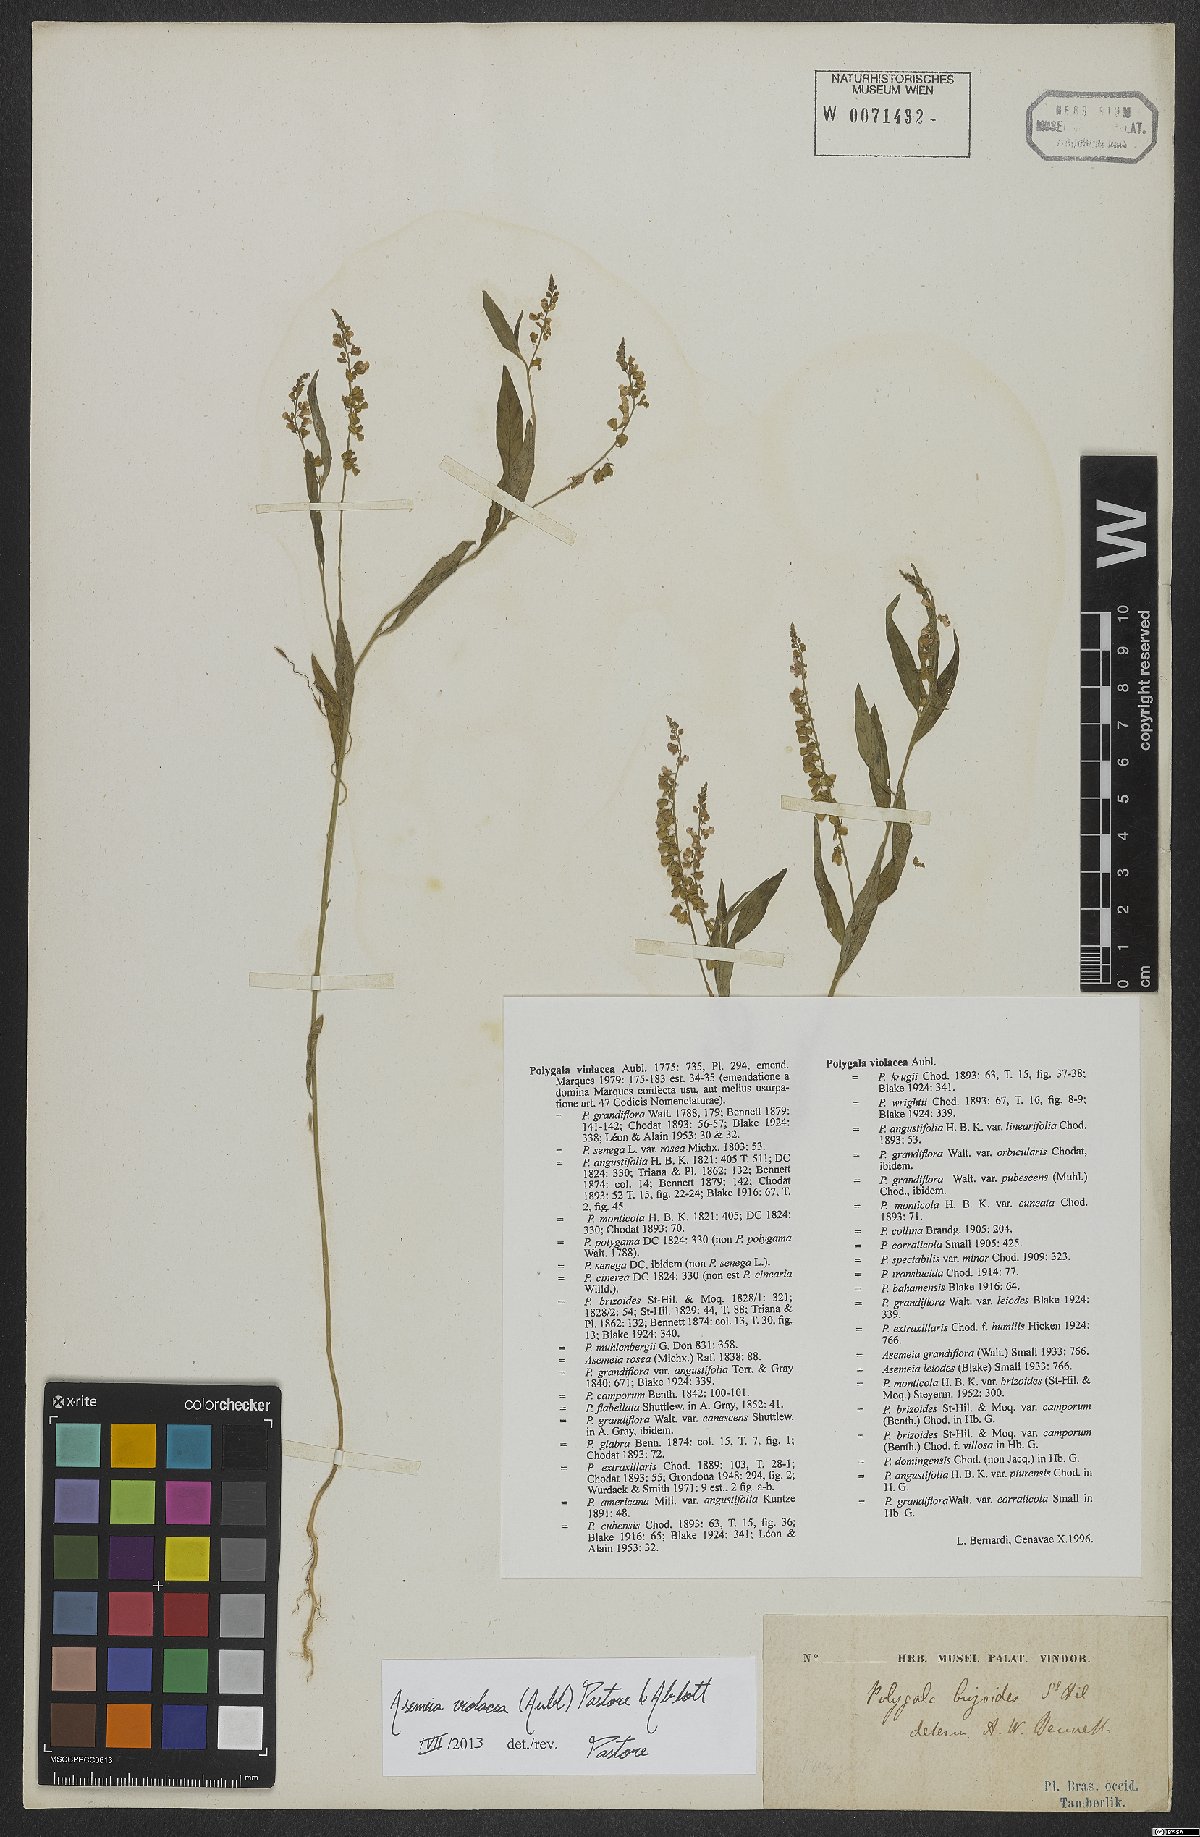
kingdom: Plantae
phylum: Tracheophyta
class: Magnoliopsida
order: Fabales
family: Polygalaceae
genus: Asemeia
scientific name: Asemeia violacea
